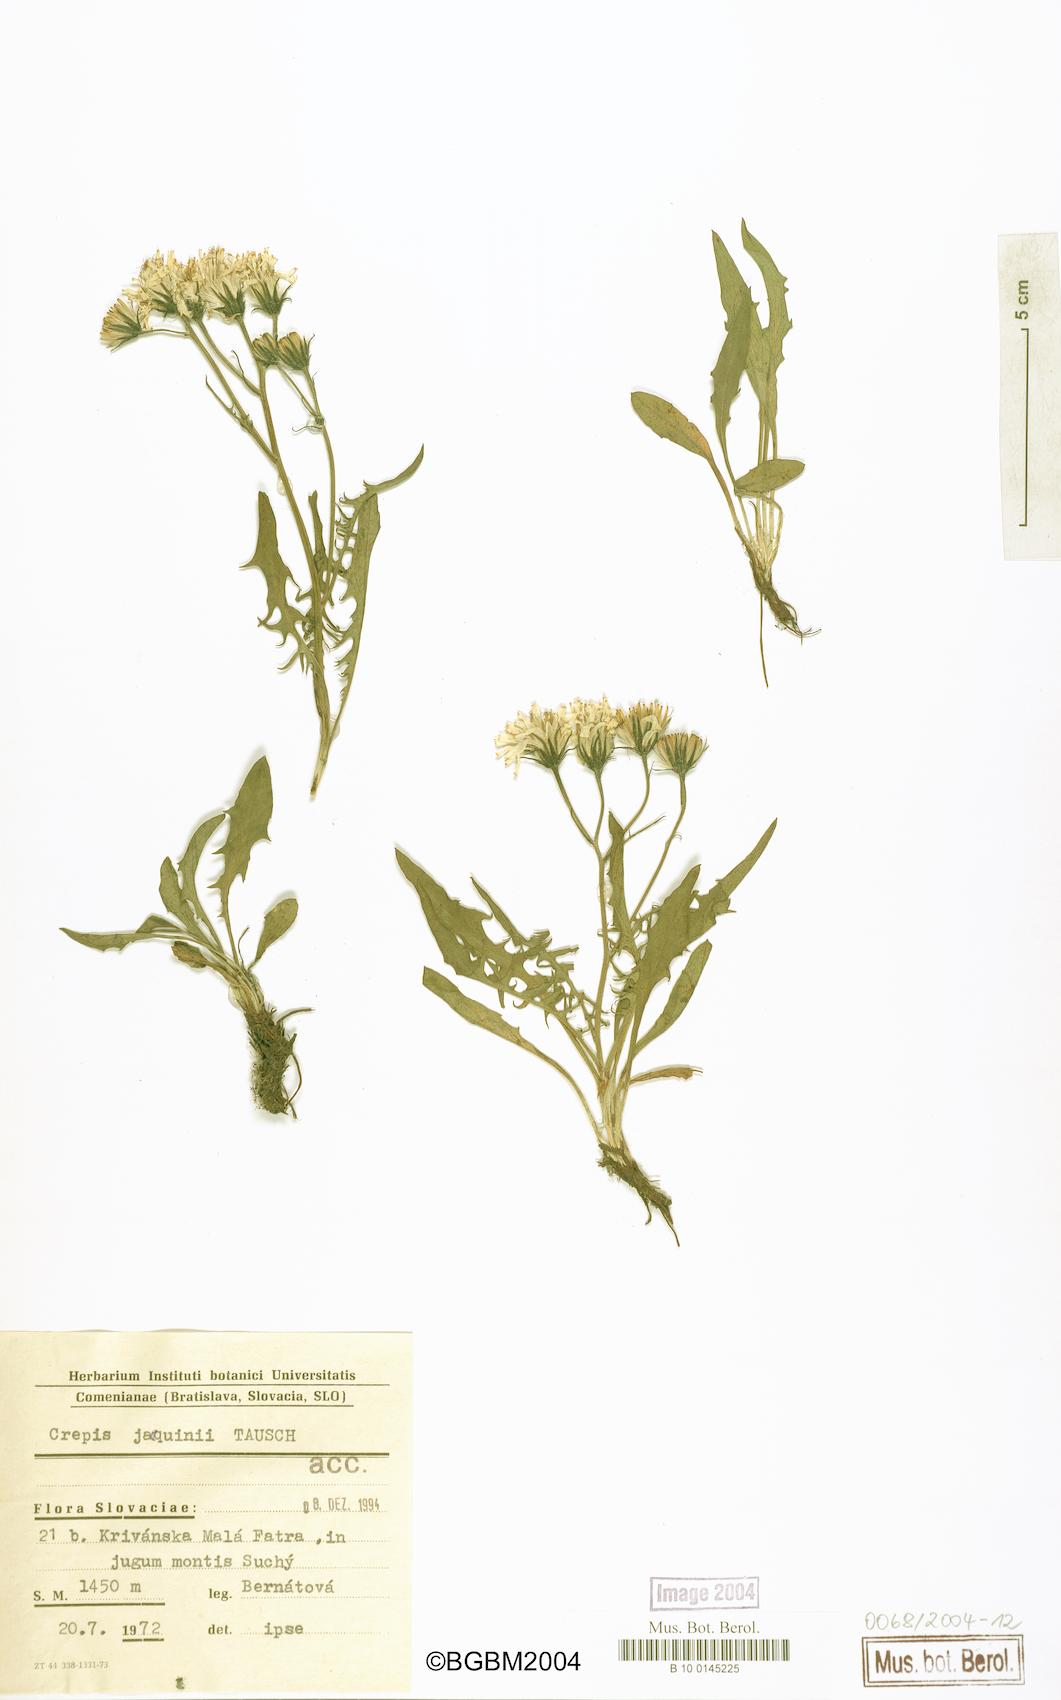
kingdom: Plantae
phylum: Tracheophyta
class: Magnoliopsida
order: Asterales
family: Asteraceae
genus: Crepis
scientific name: Crepis jacquinii
